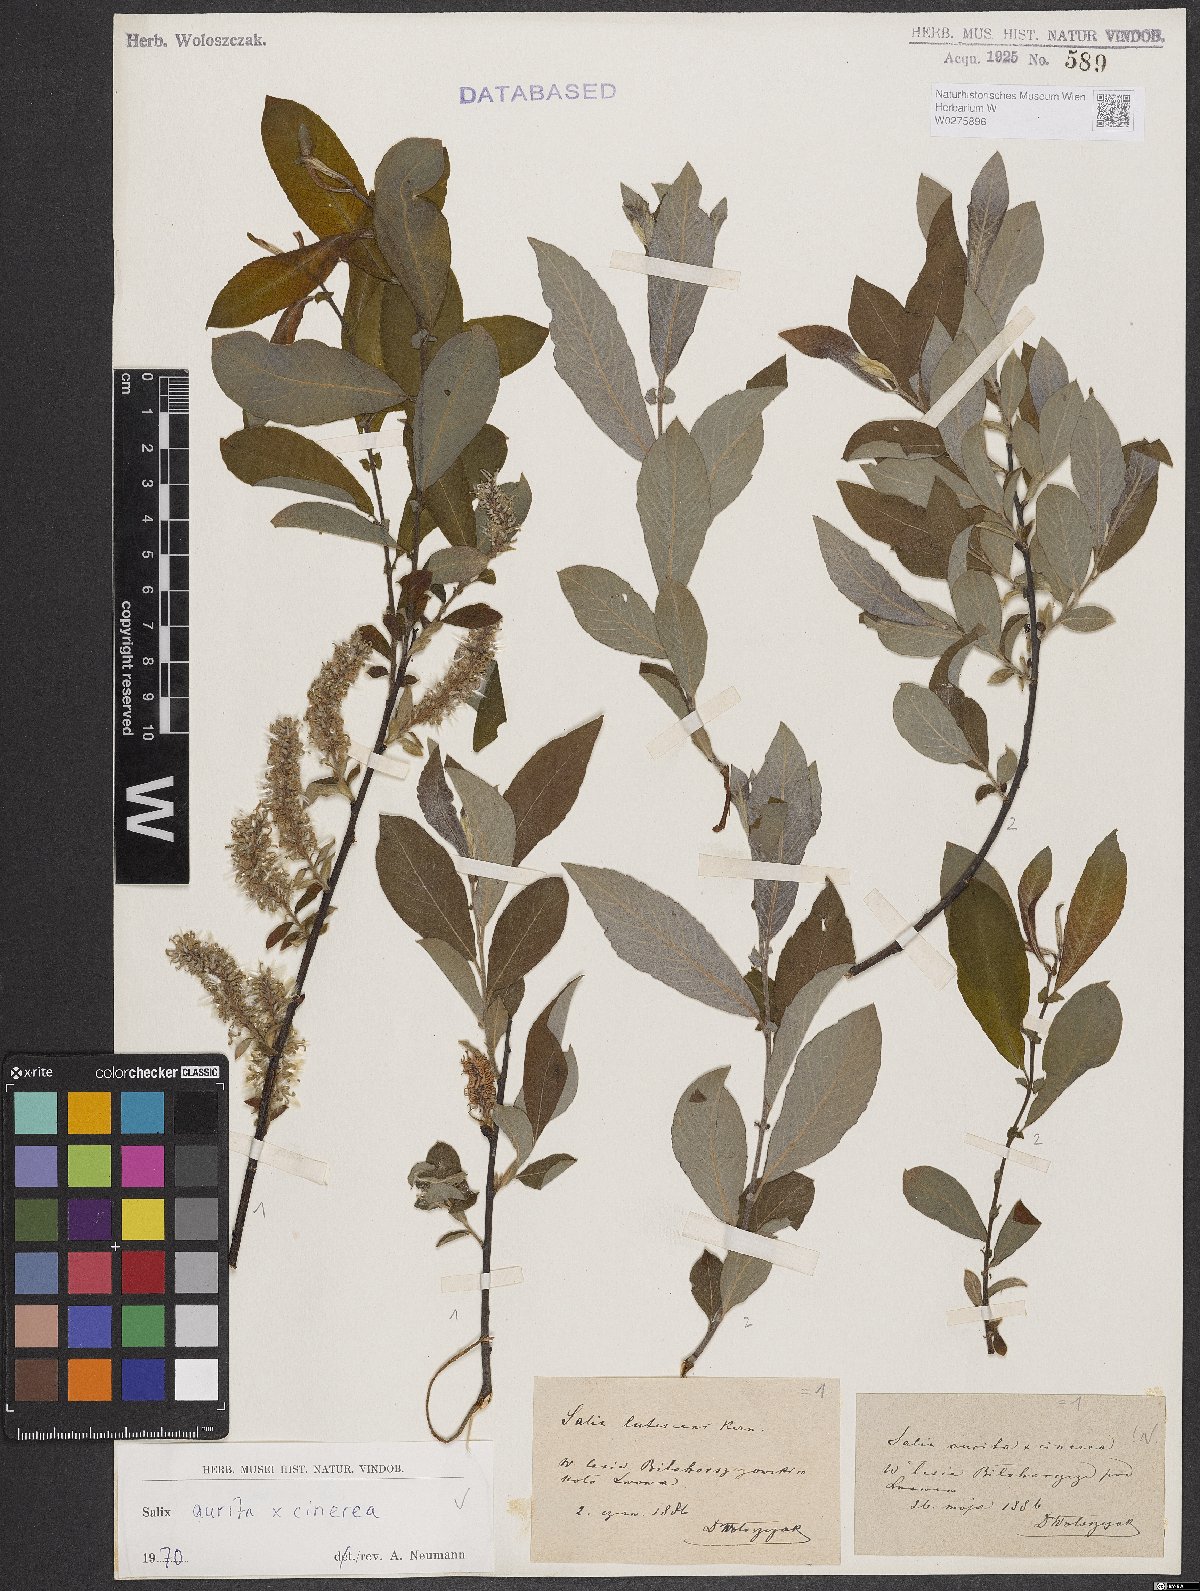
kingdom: Plantae
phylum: Tracheophyta
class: Magnoliopsida
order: Malpighiales
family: Salicaceae
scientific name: Salicaceae
